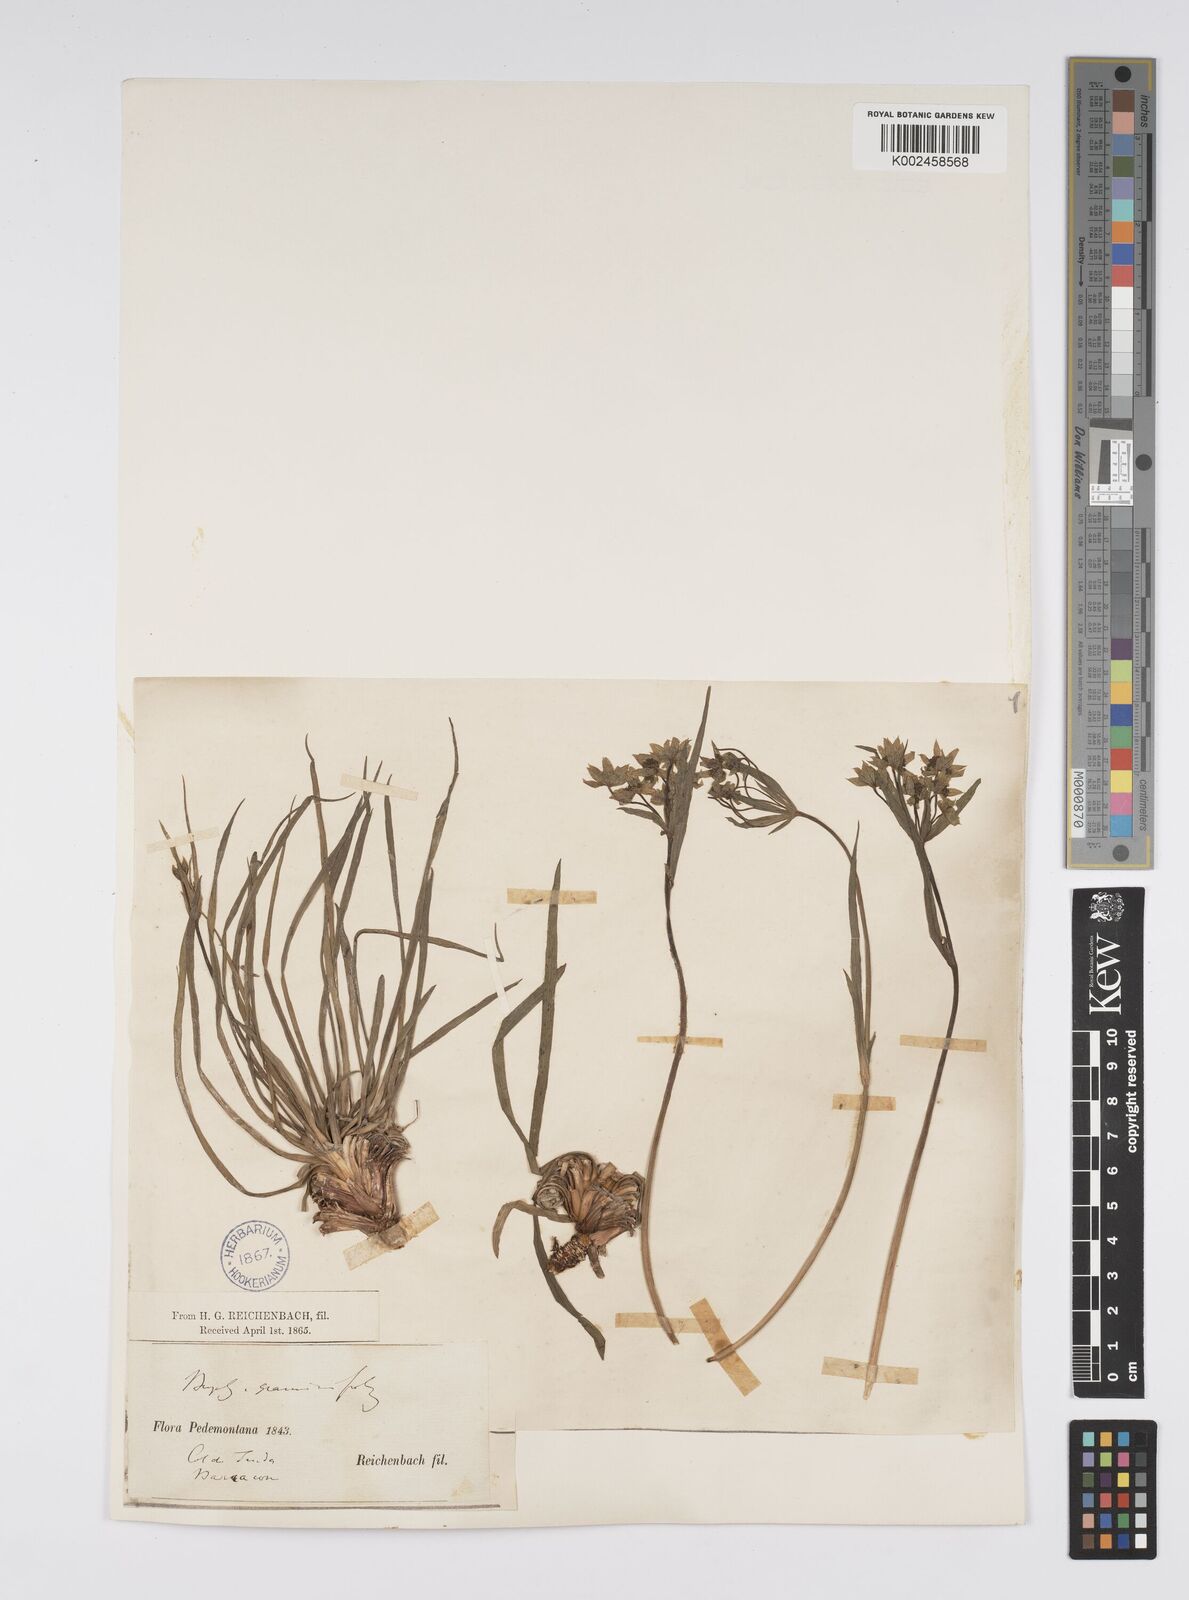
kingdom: Plantae
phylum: Tracheophyta
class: Magnoliopsida
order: Apiales
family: Apiaceae
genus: Bupleurum
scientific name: Bupleurum petraeum
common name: Rock hare's-ear
